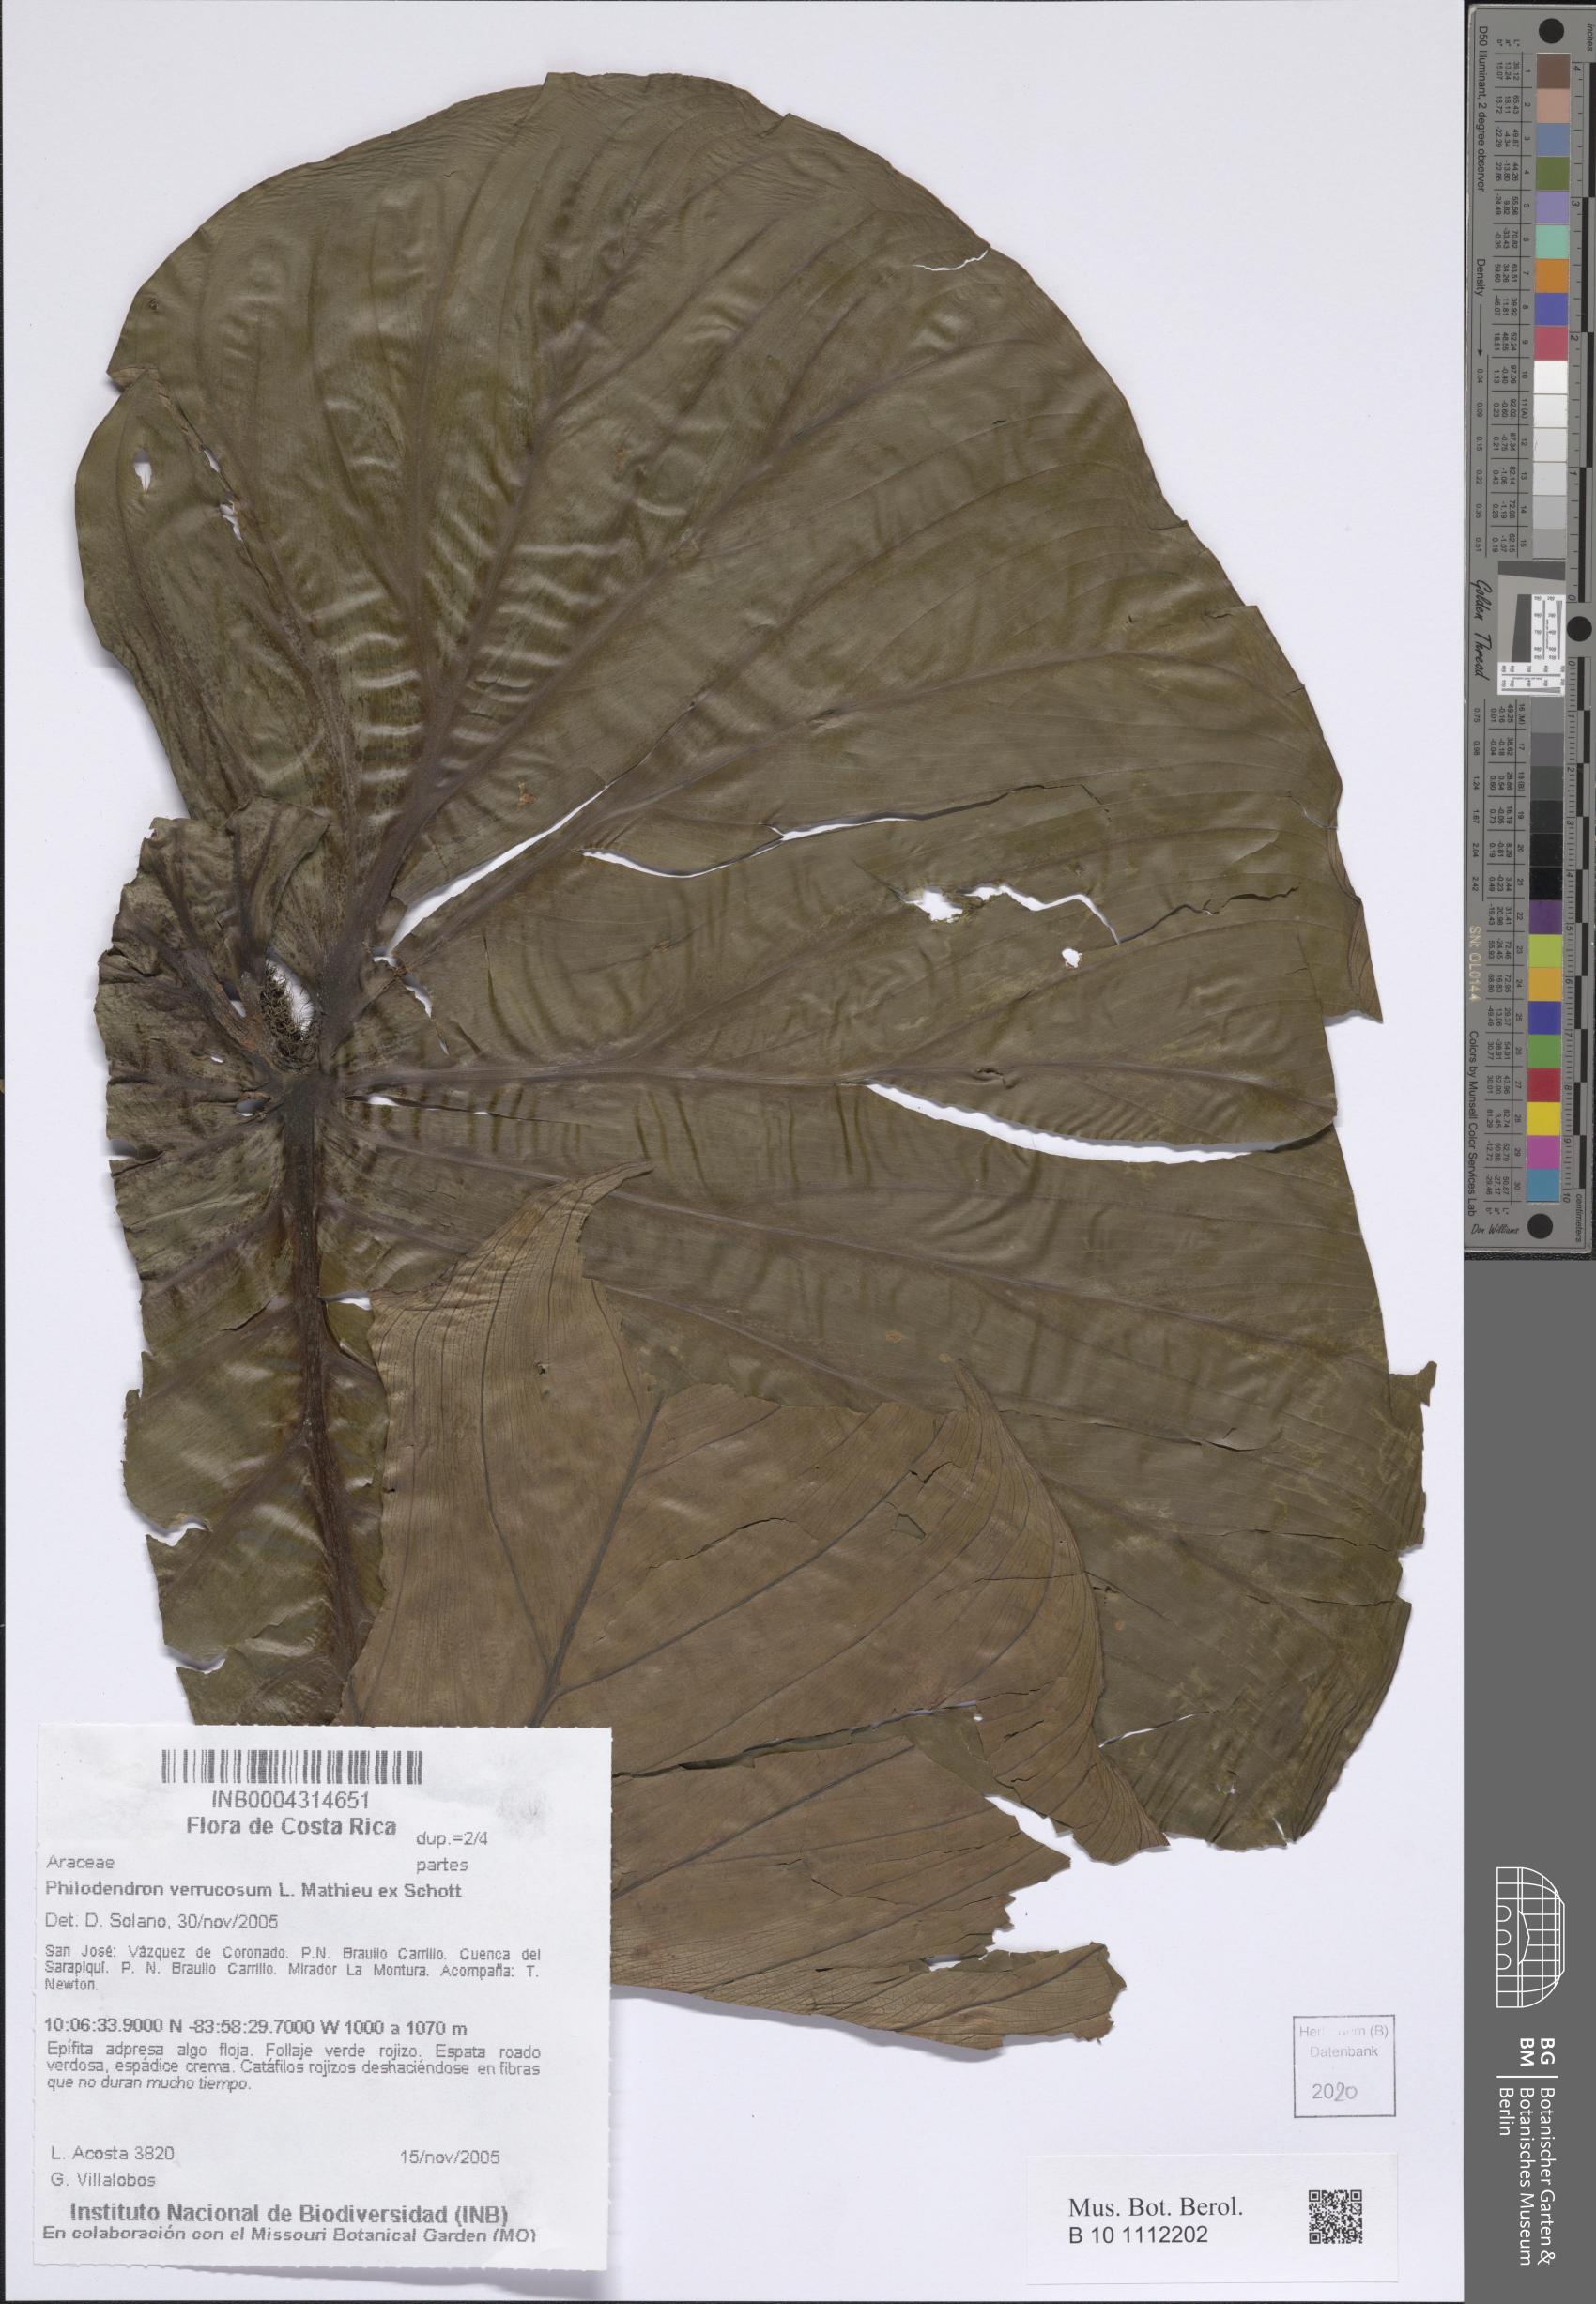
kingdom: Plantae
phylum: Tracheophyta
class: Liliopsida
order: Alismatales
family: Araceae
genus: Philodendron
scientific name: Philodendron verrucosum
